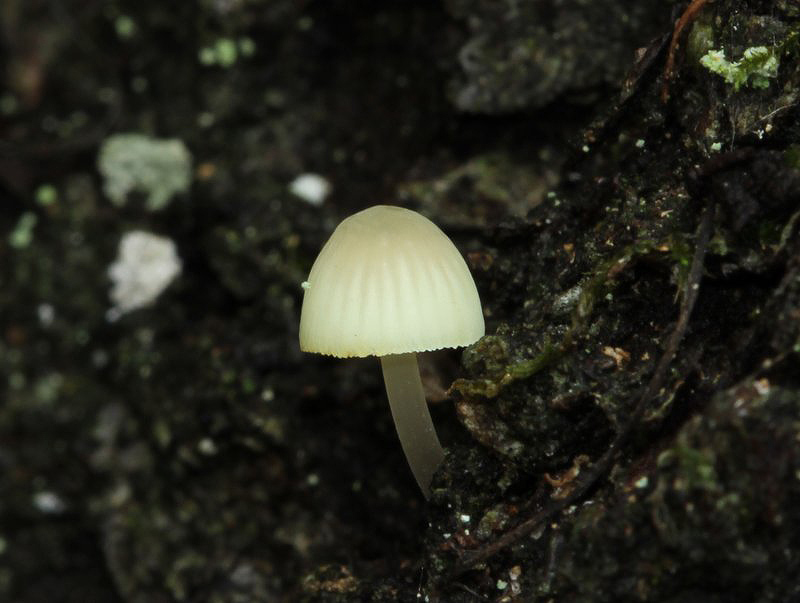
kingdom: Fungi
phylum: Basidiomycota
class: Agaricomycetes
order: Agaricales
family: Mycenaceae
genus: Mycena
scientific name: Mycena arcangeliana
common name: oliven-huesvamp
